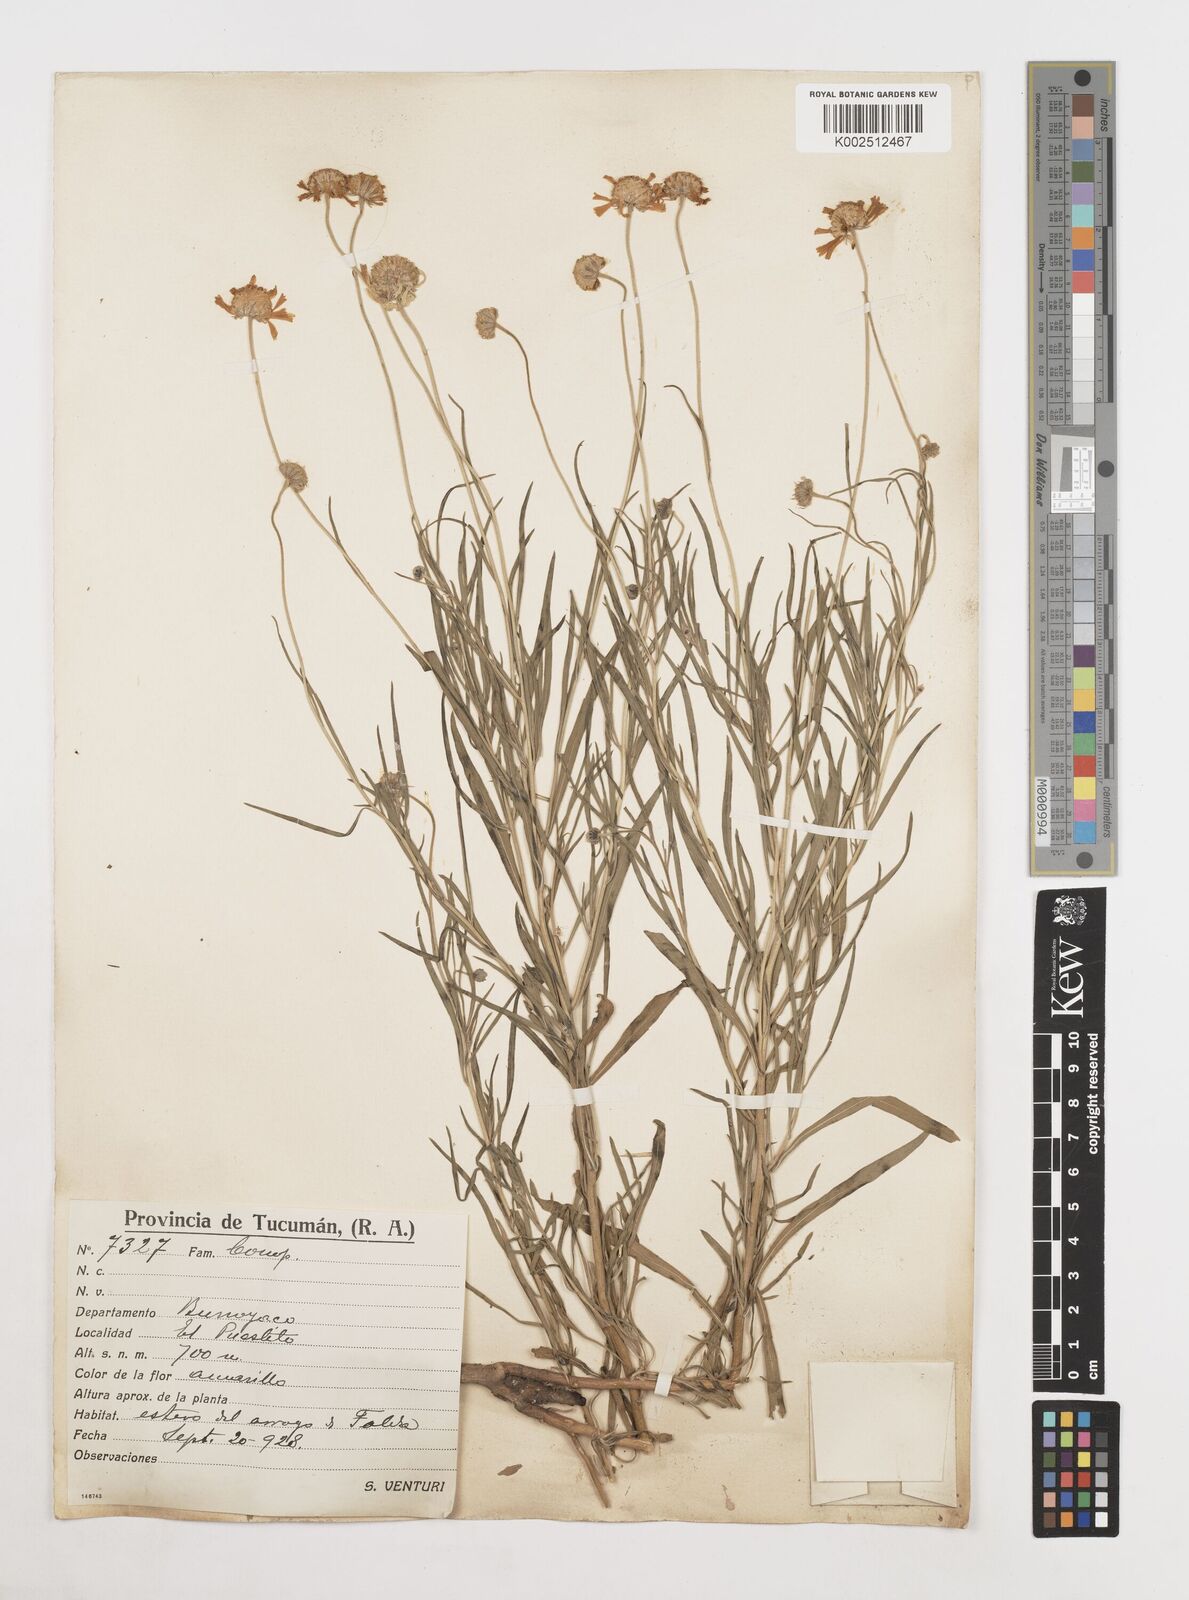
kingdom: Plantae
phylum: Tracheophyta
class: Magnoliopsida
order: Asterales
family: Asteraceae
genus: Gaillardia
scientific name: Gaillardia
